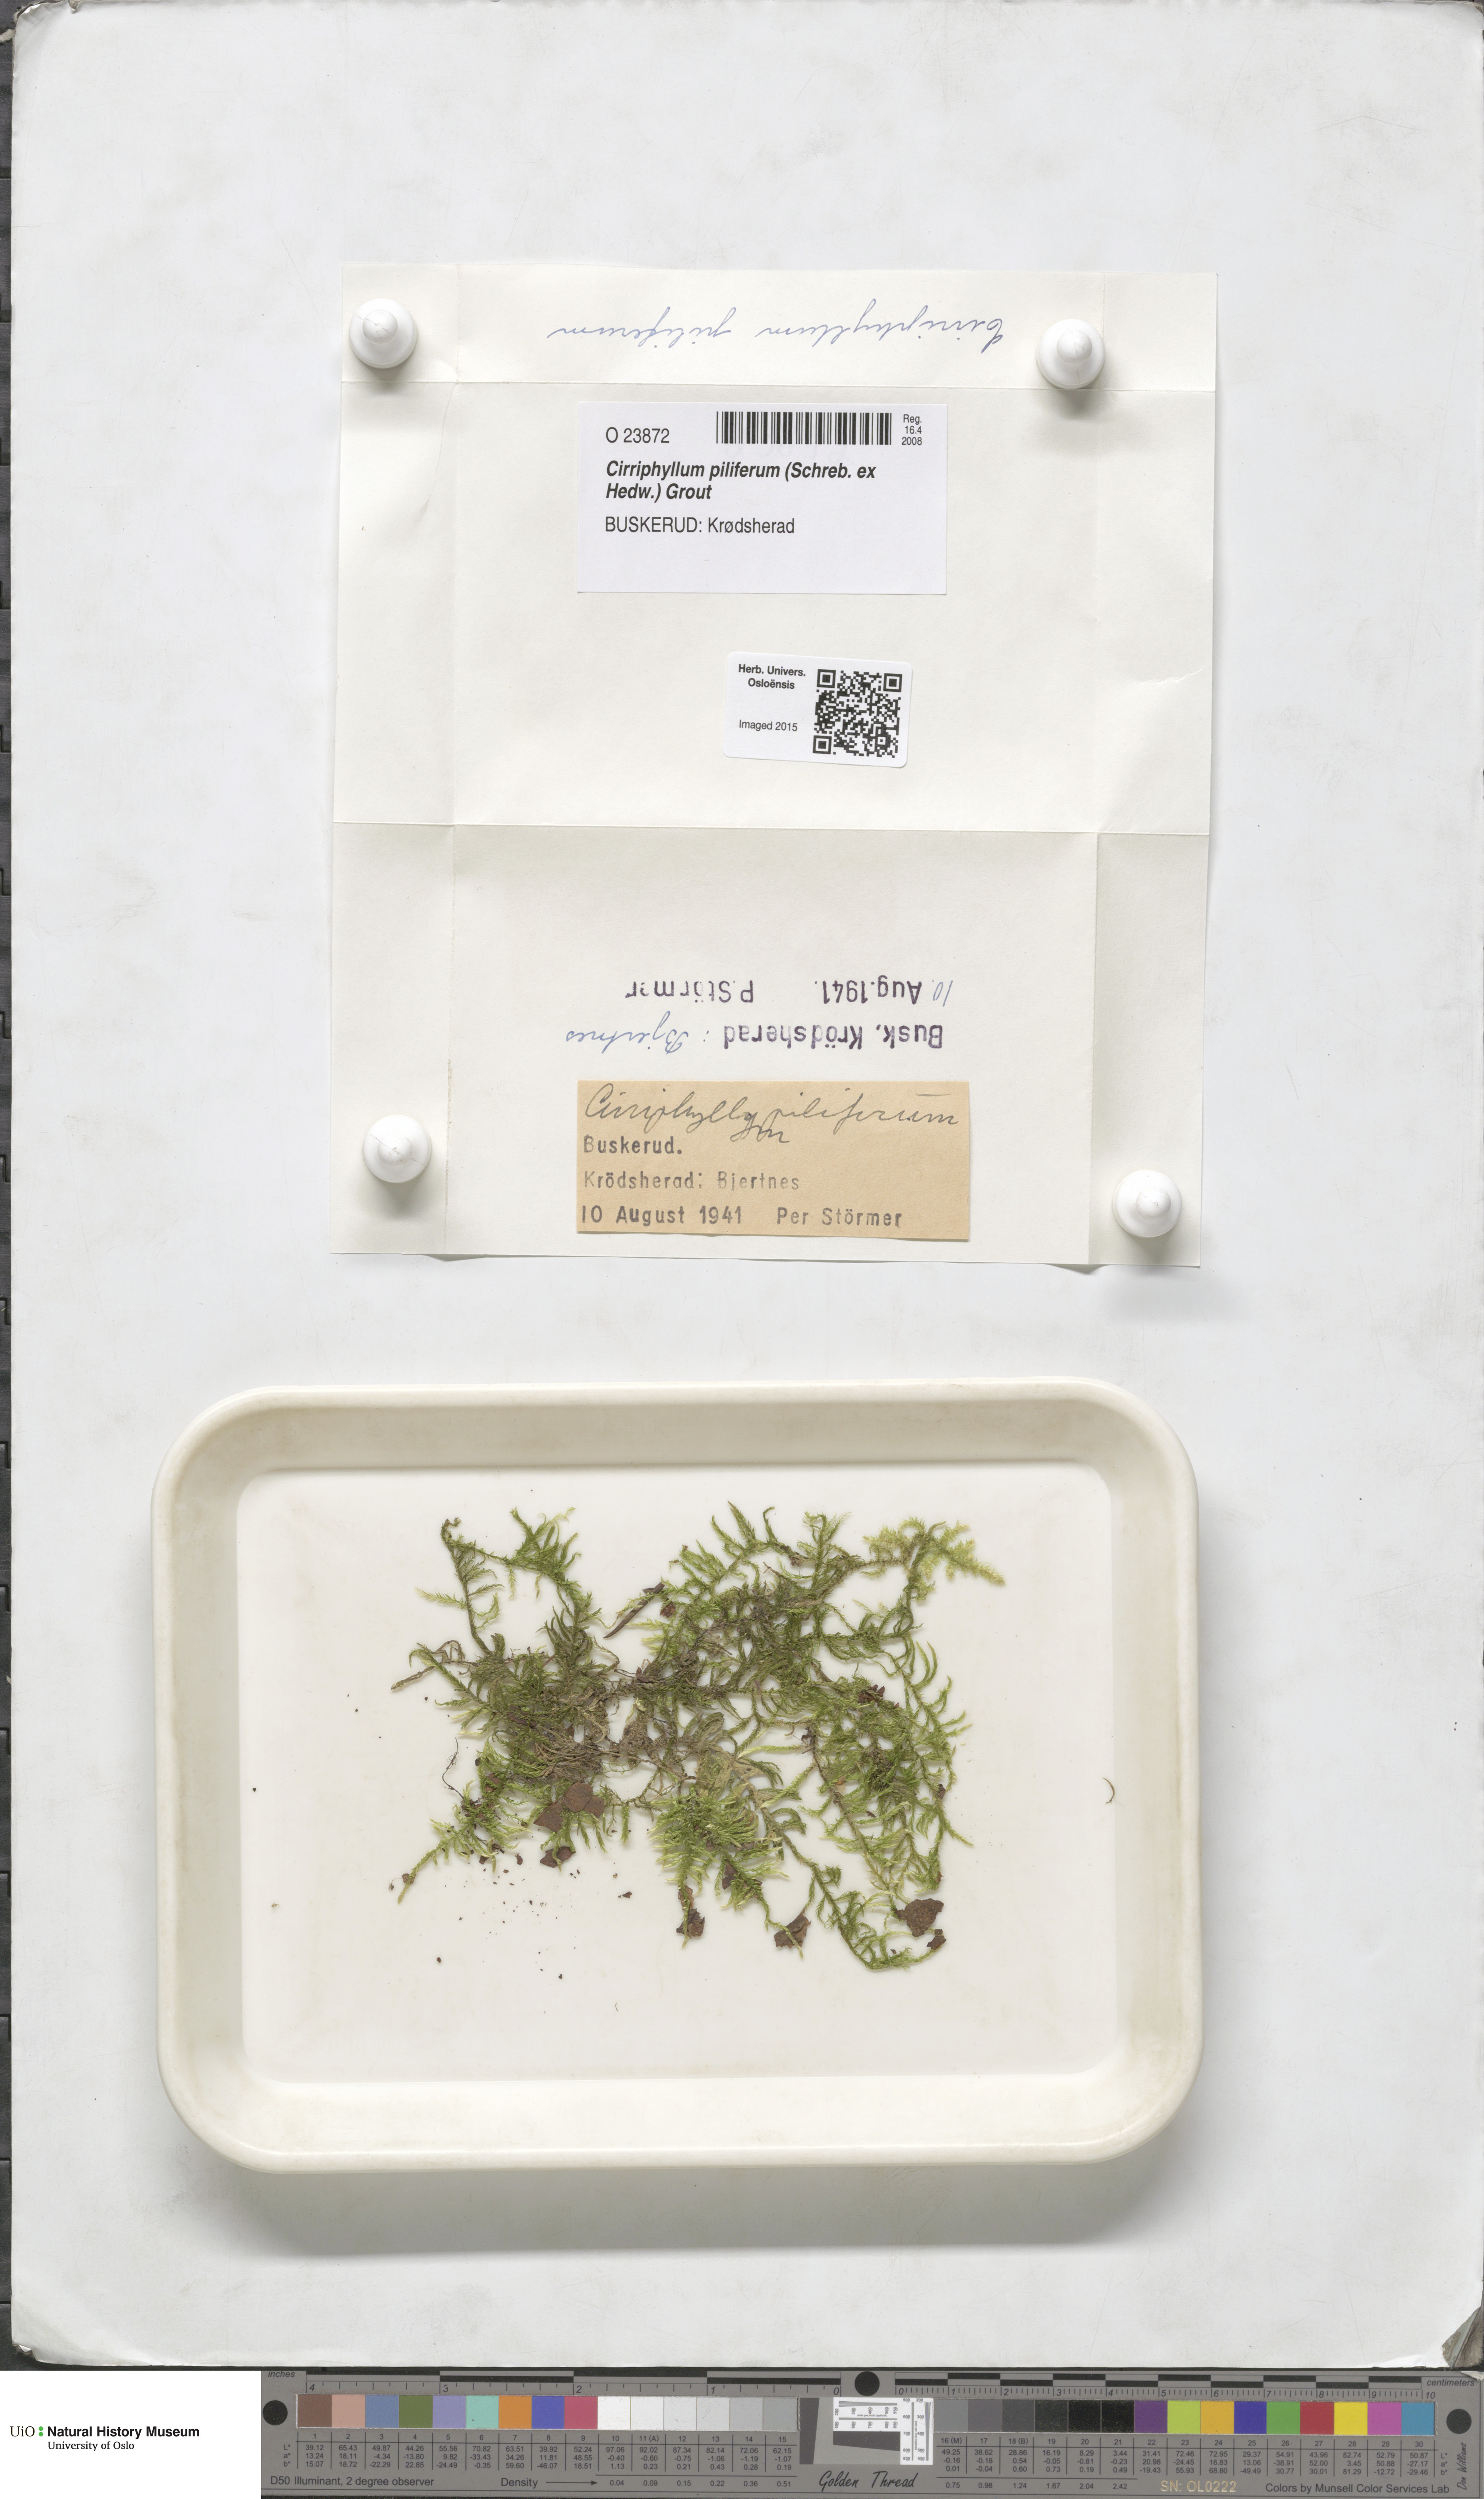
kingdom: Plantae
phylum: Bryophyta
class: Bryopsida
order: Hypnales
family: Brachytheciaceae
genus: Cirriphyllum
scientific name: Cirriphyllum piliferum
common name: Hair-pointed moss
